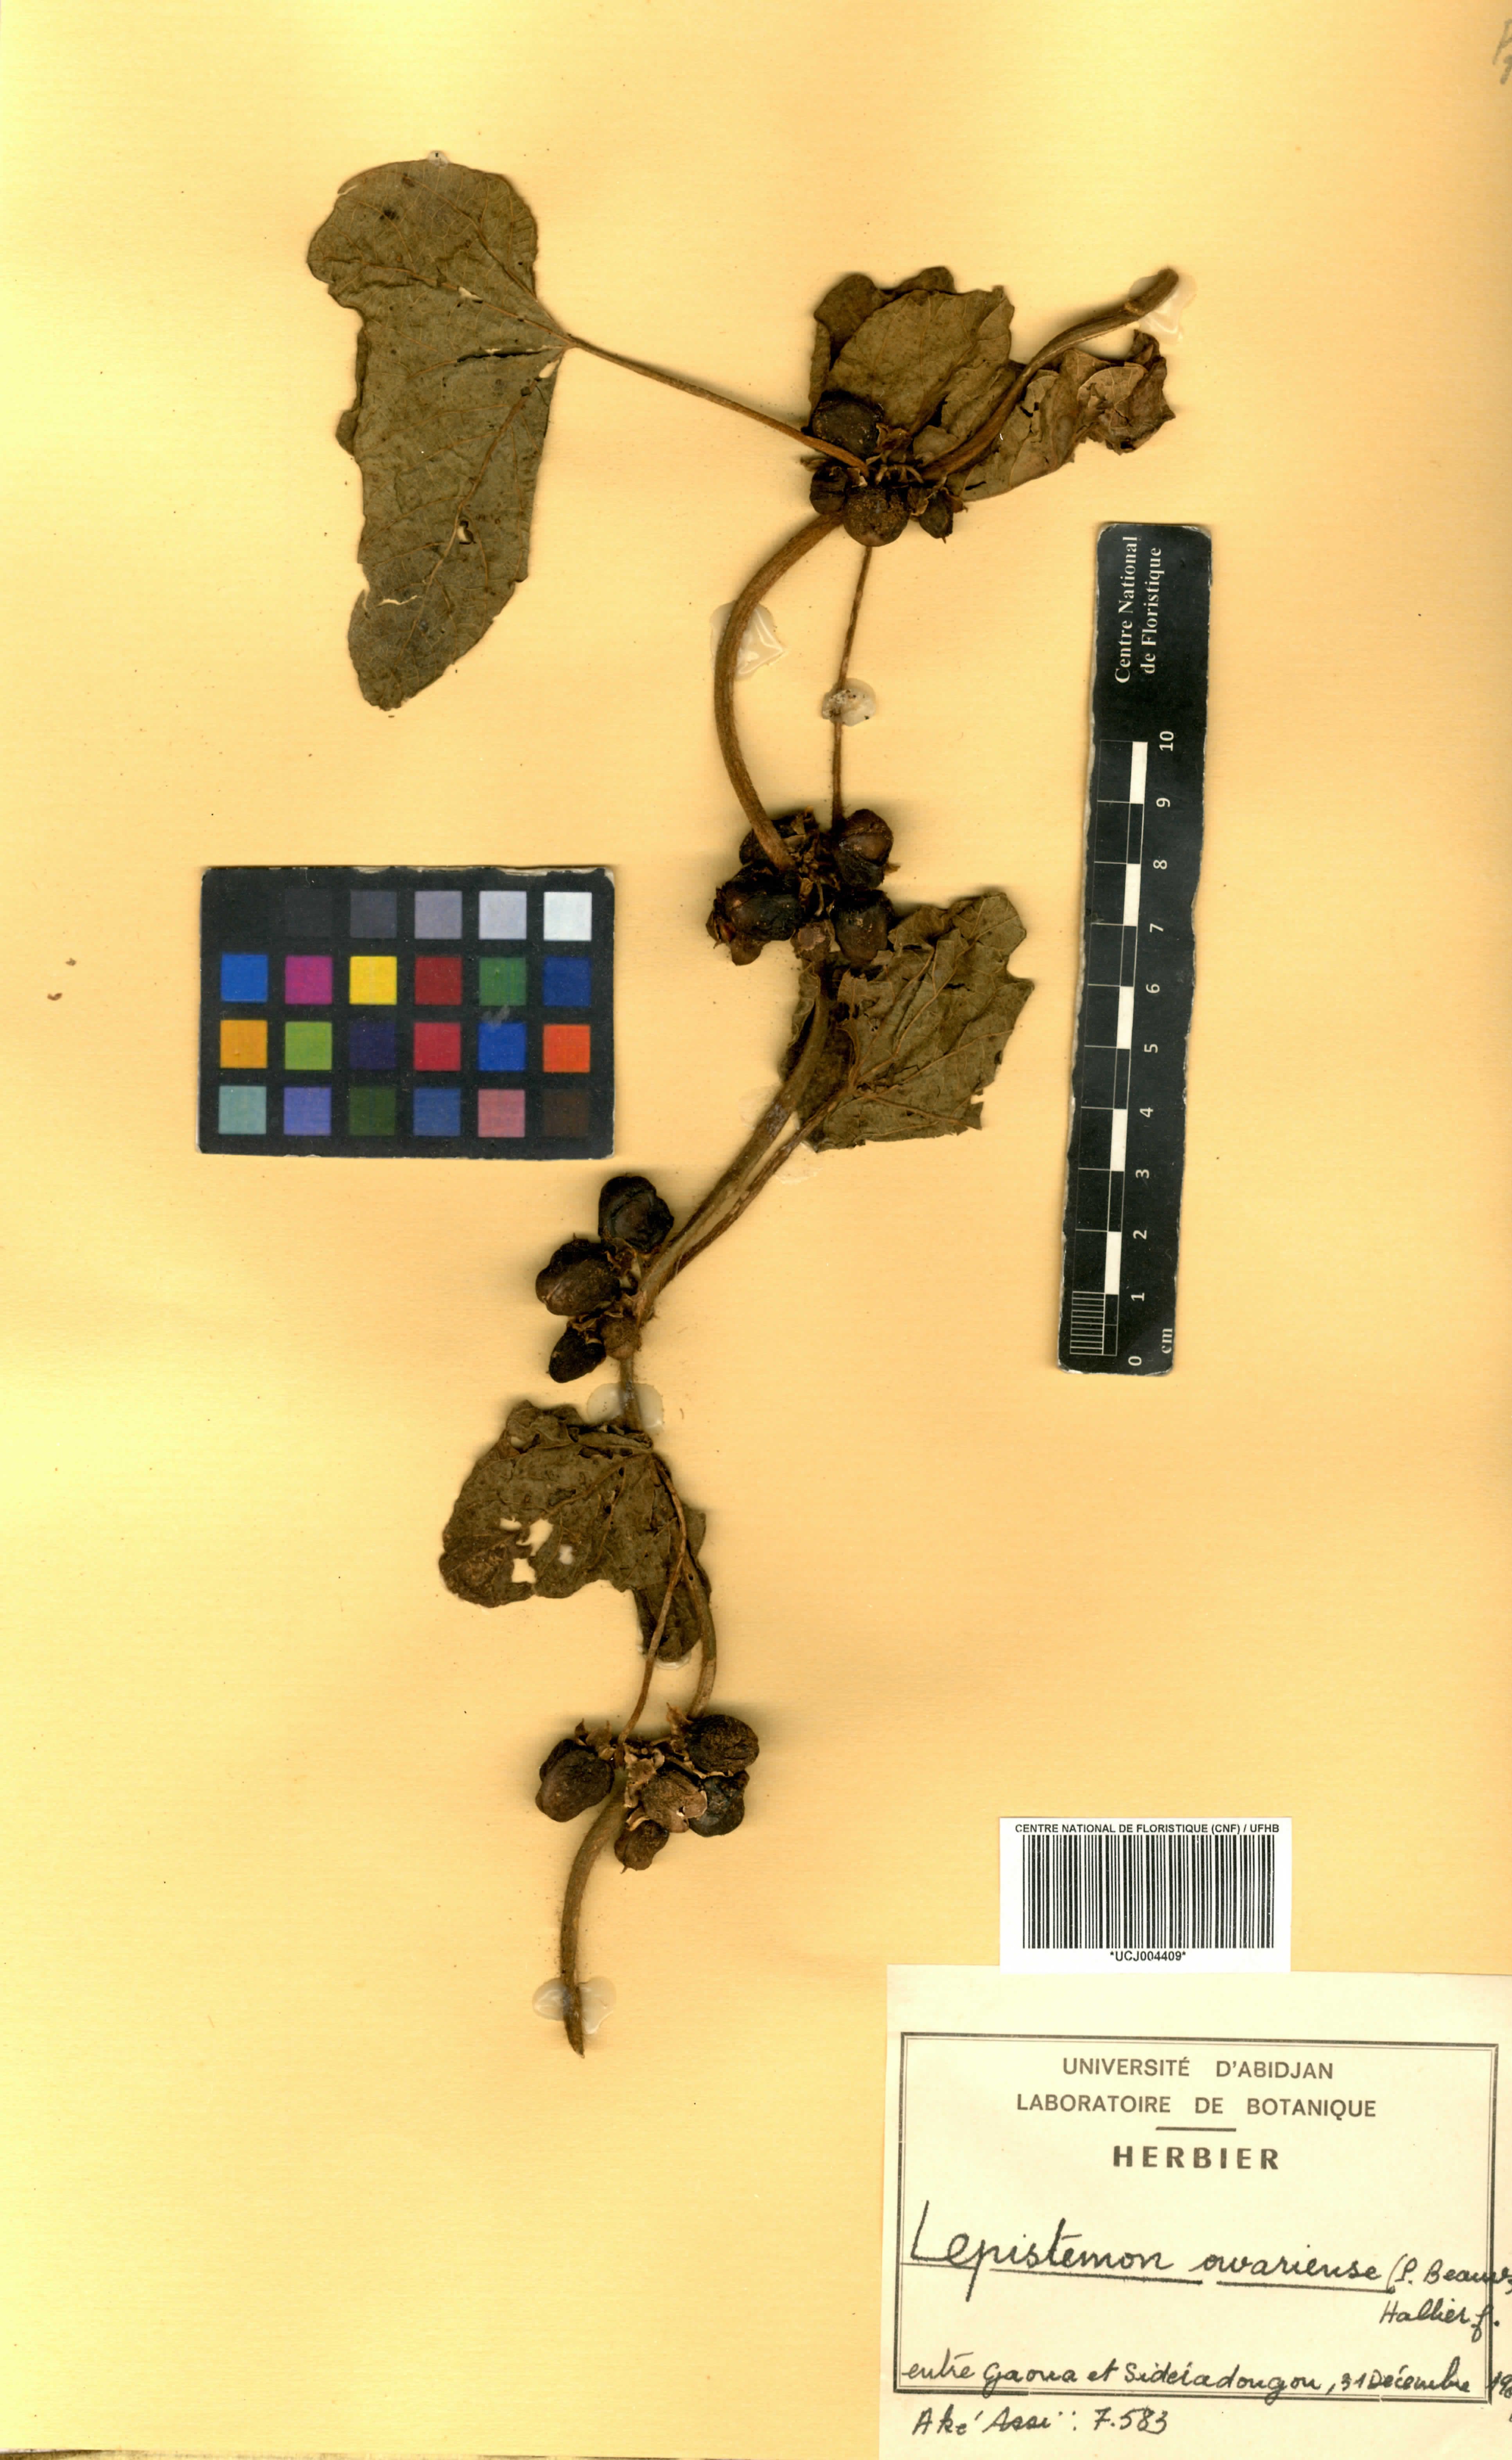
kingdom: Plantae
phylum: Tracheophyta
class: Magnoliopsida
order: Solanales
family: Convolvulaceae
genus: Lepistemon
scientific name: Lepistemon owariense
